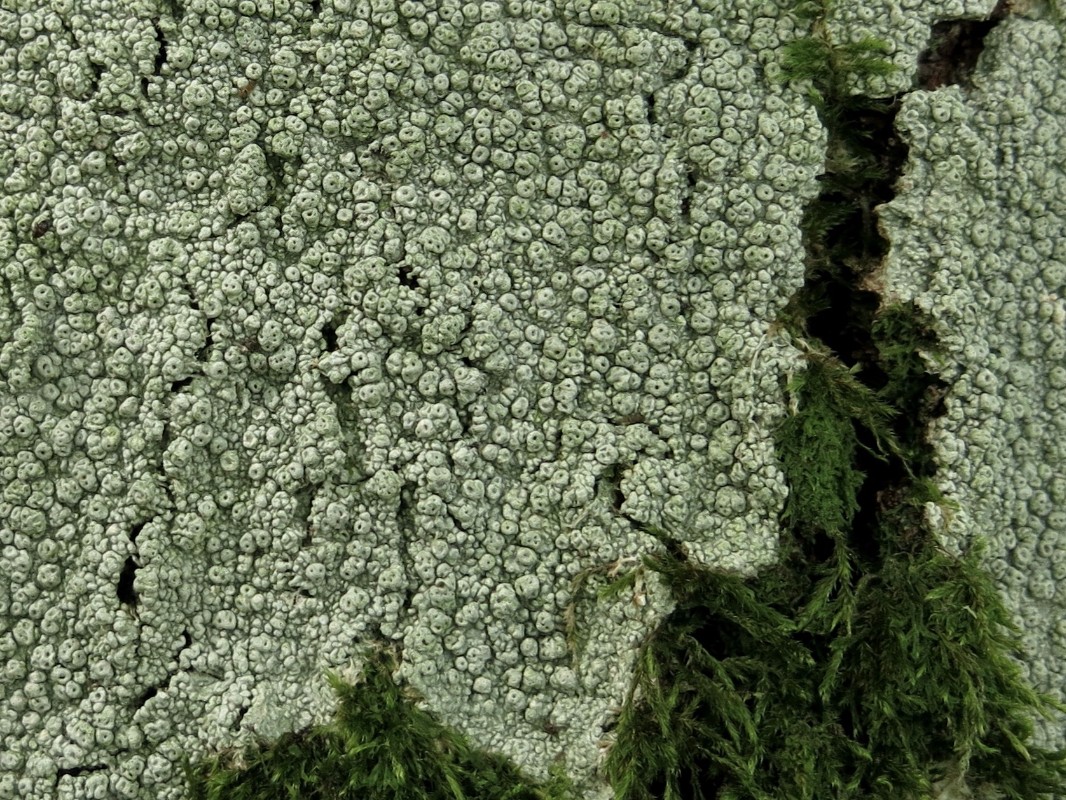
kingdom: Fungi
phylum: Ascomycota
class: Lecanoromycetes
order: Pertusariales
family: Pertusariaceae
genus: Pertusaria
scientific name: Pertusaria pertusa
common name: almindelig prikvortelav
